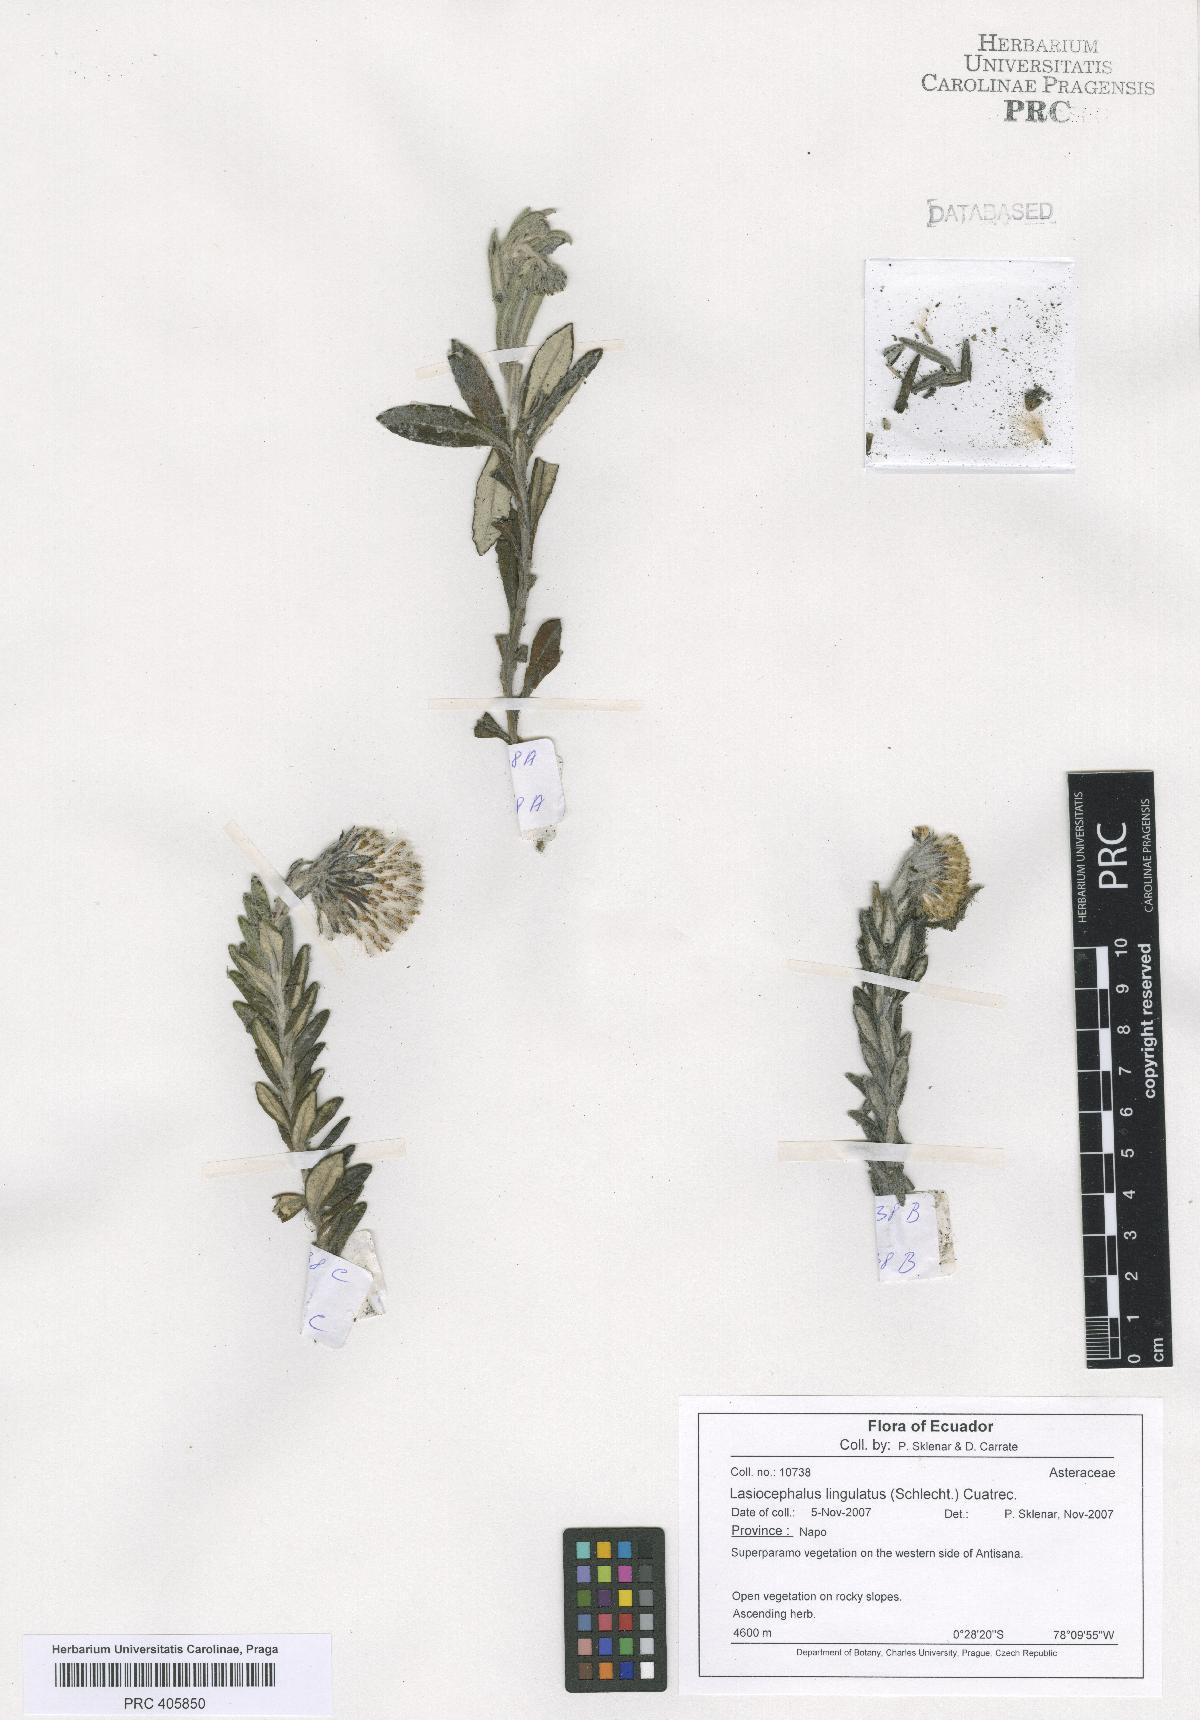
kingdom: Plantae
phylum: Tracheophyta
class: Magnoliopsida
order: Asterales
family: Asteraceae
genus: Lasiocephalus
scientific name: Lasiocephalus lingulatus
